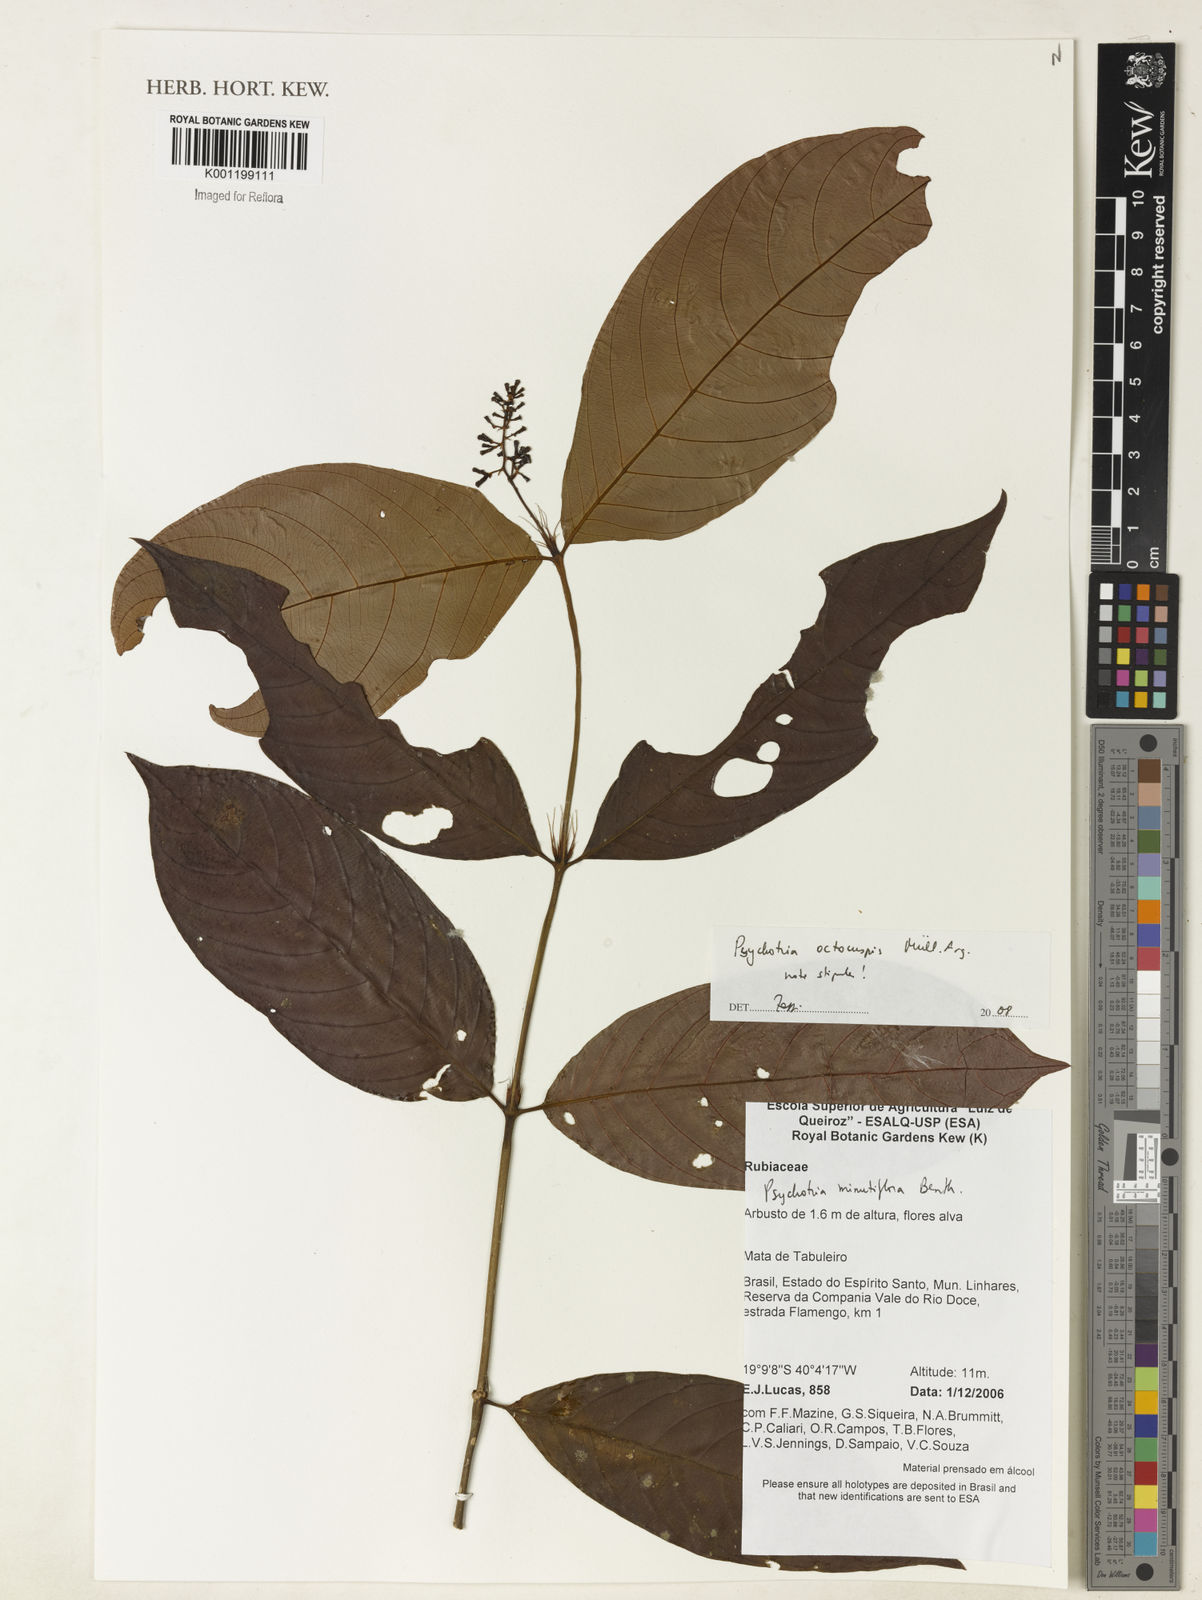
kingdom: Plantae
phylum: Tracheophyta
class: Magnoliopsida
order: Gentianales
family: Rubiaceae
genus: Psychotria
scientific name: Psychotria
